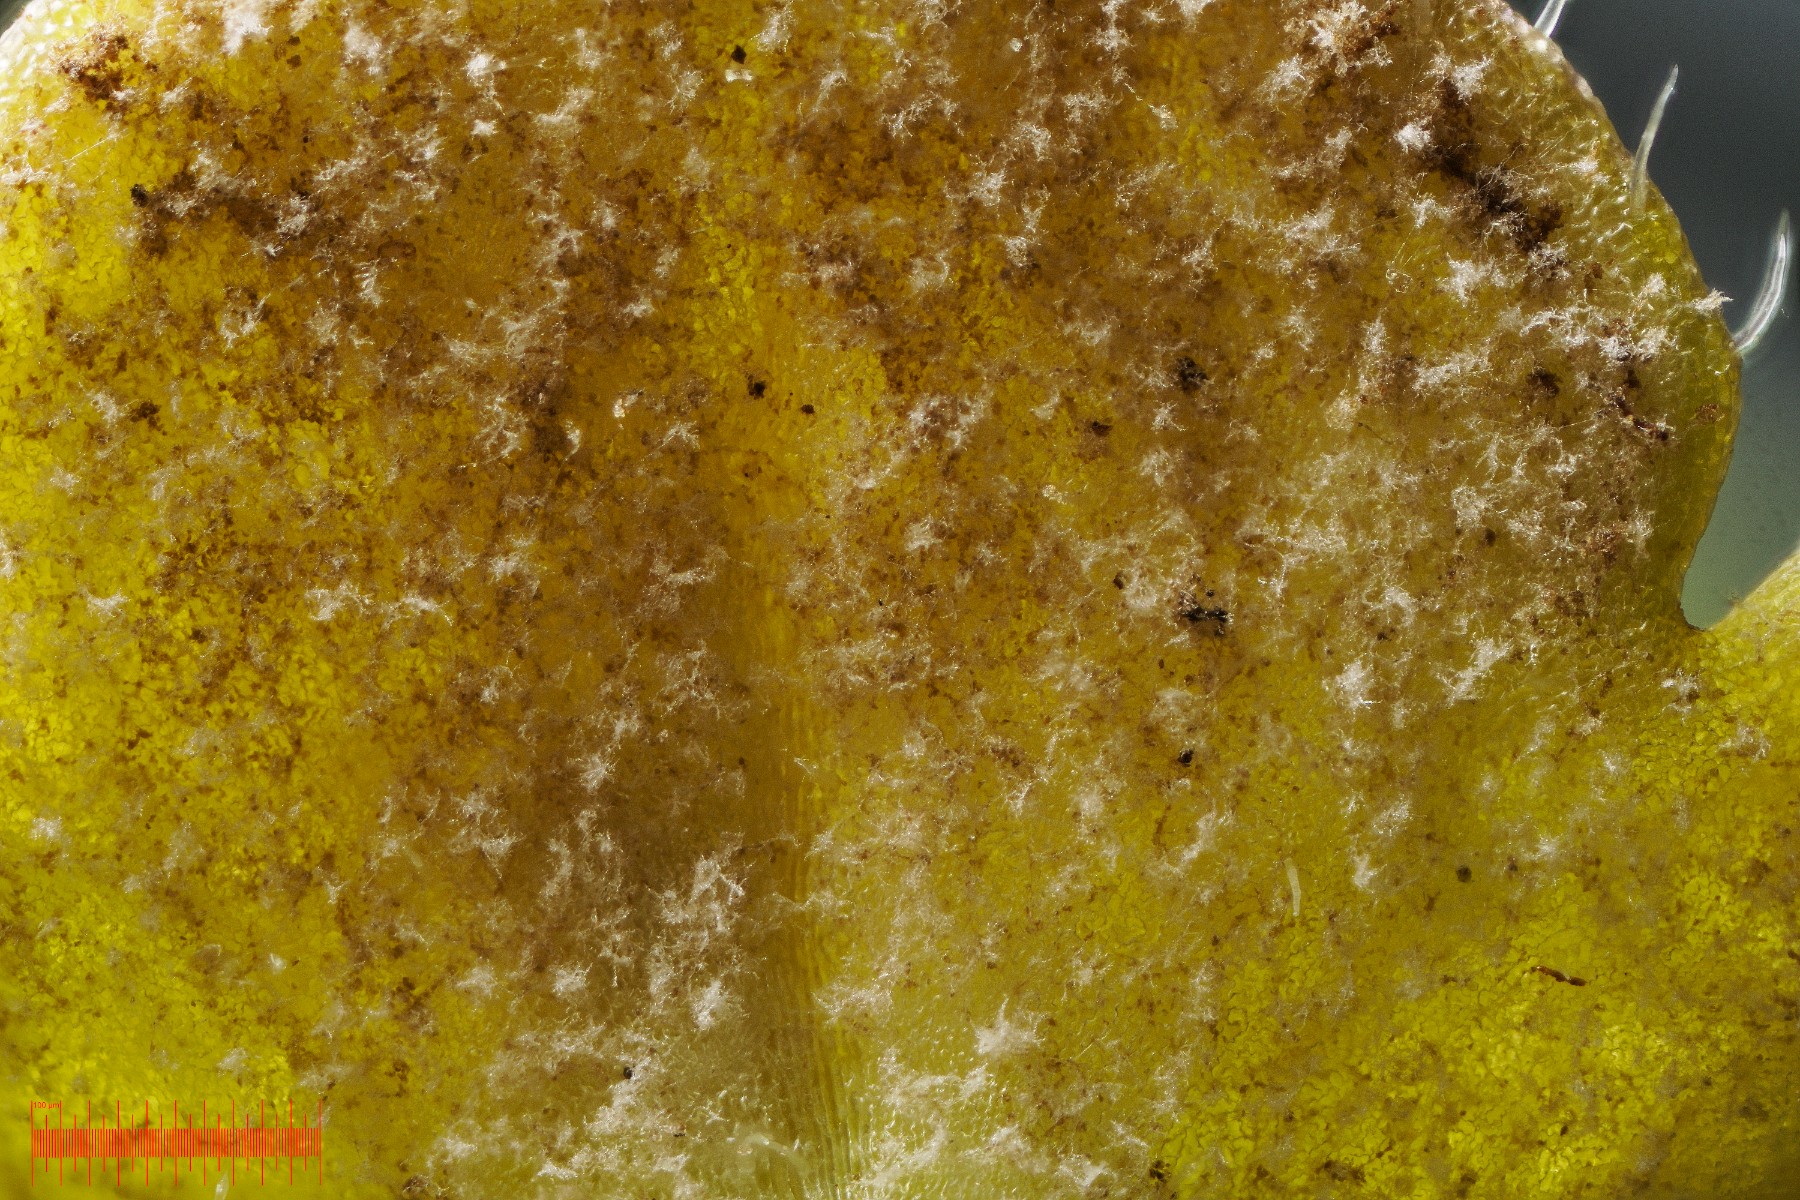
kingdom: Chromista
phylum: Oomycota
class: Peronosporea
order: Peronosporales
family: Peronosporaceae
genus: Peronospora
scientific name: Peronospora arvensis
